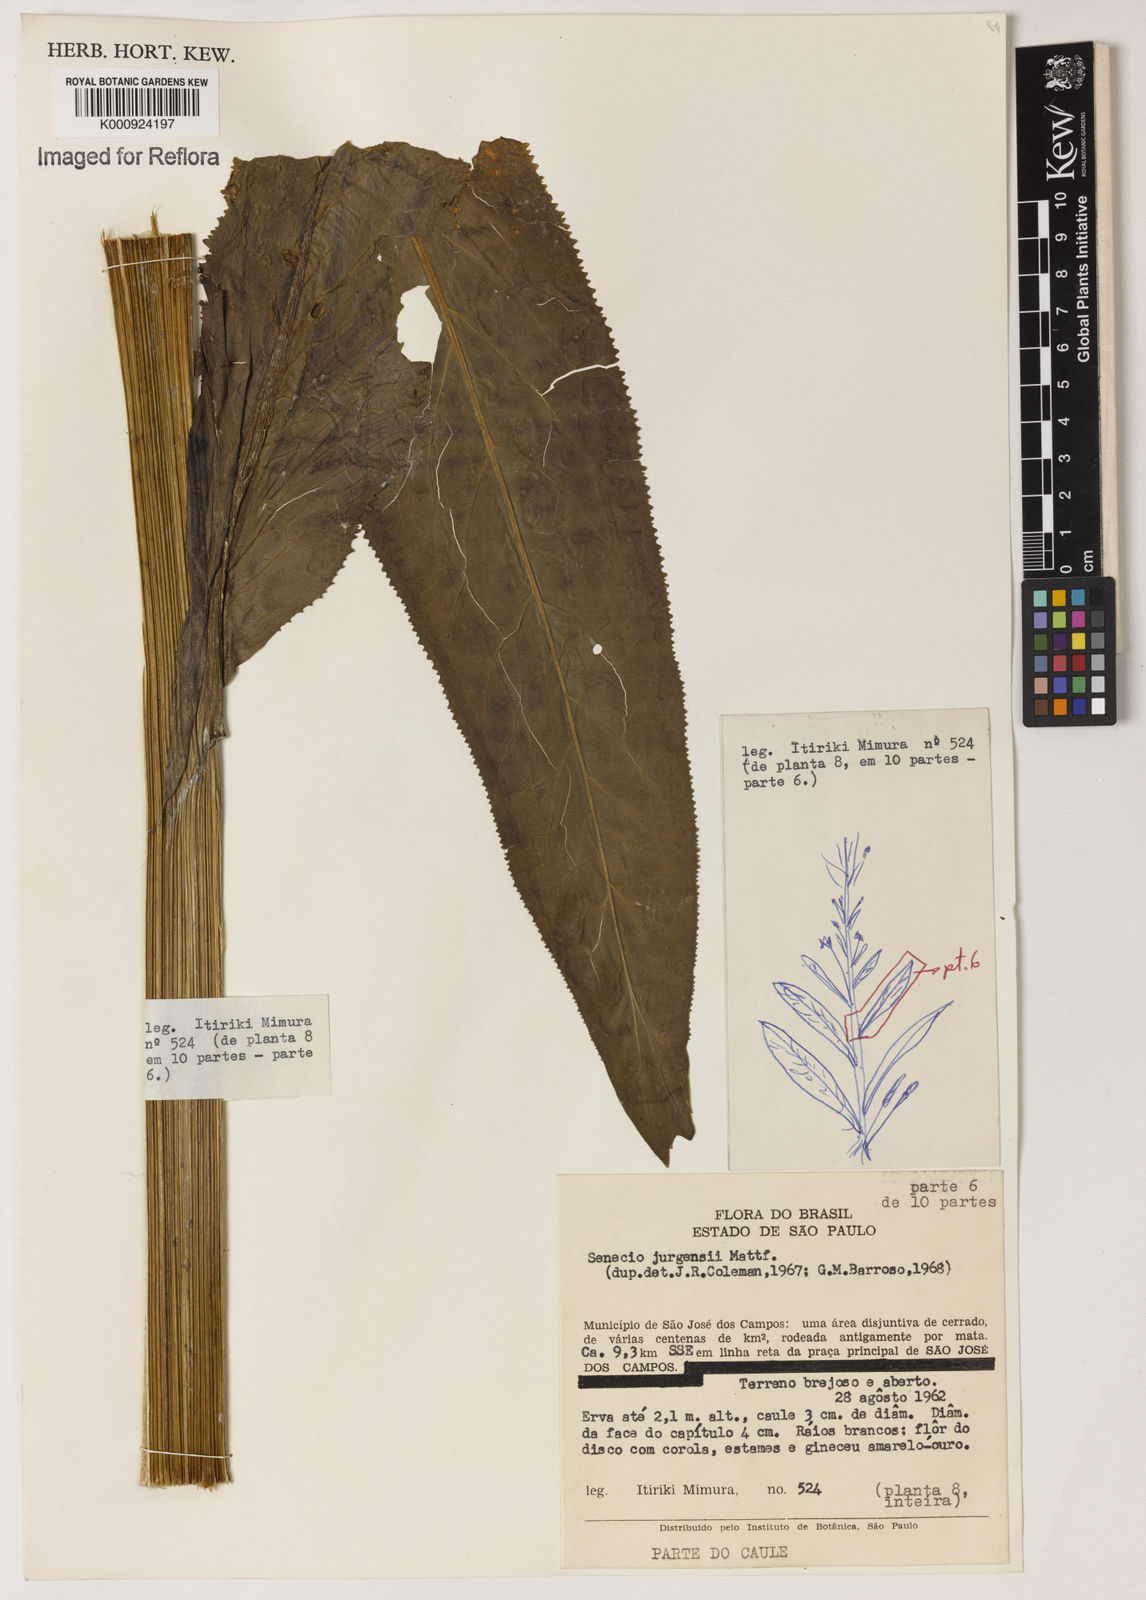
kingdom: Plantae
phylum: Tracheophyta
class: Magnoliopsida
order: Asterales
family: Asteraceae
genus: Senecio
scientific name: Senecio juergensii
